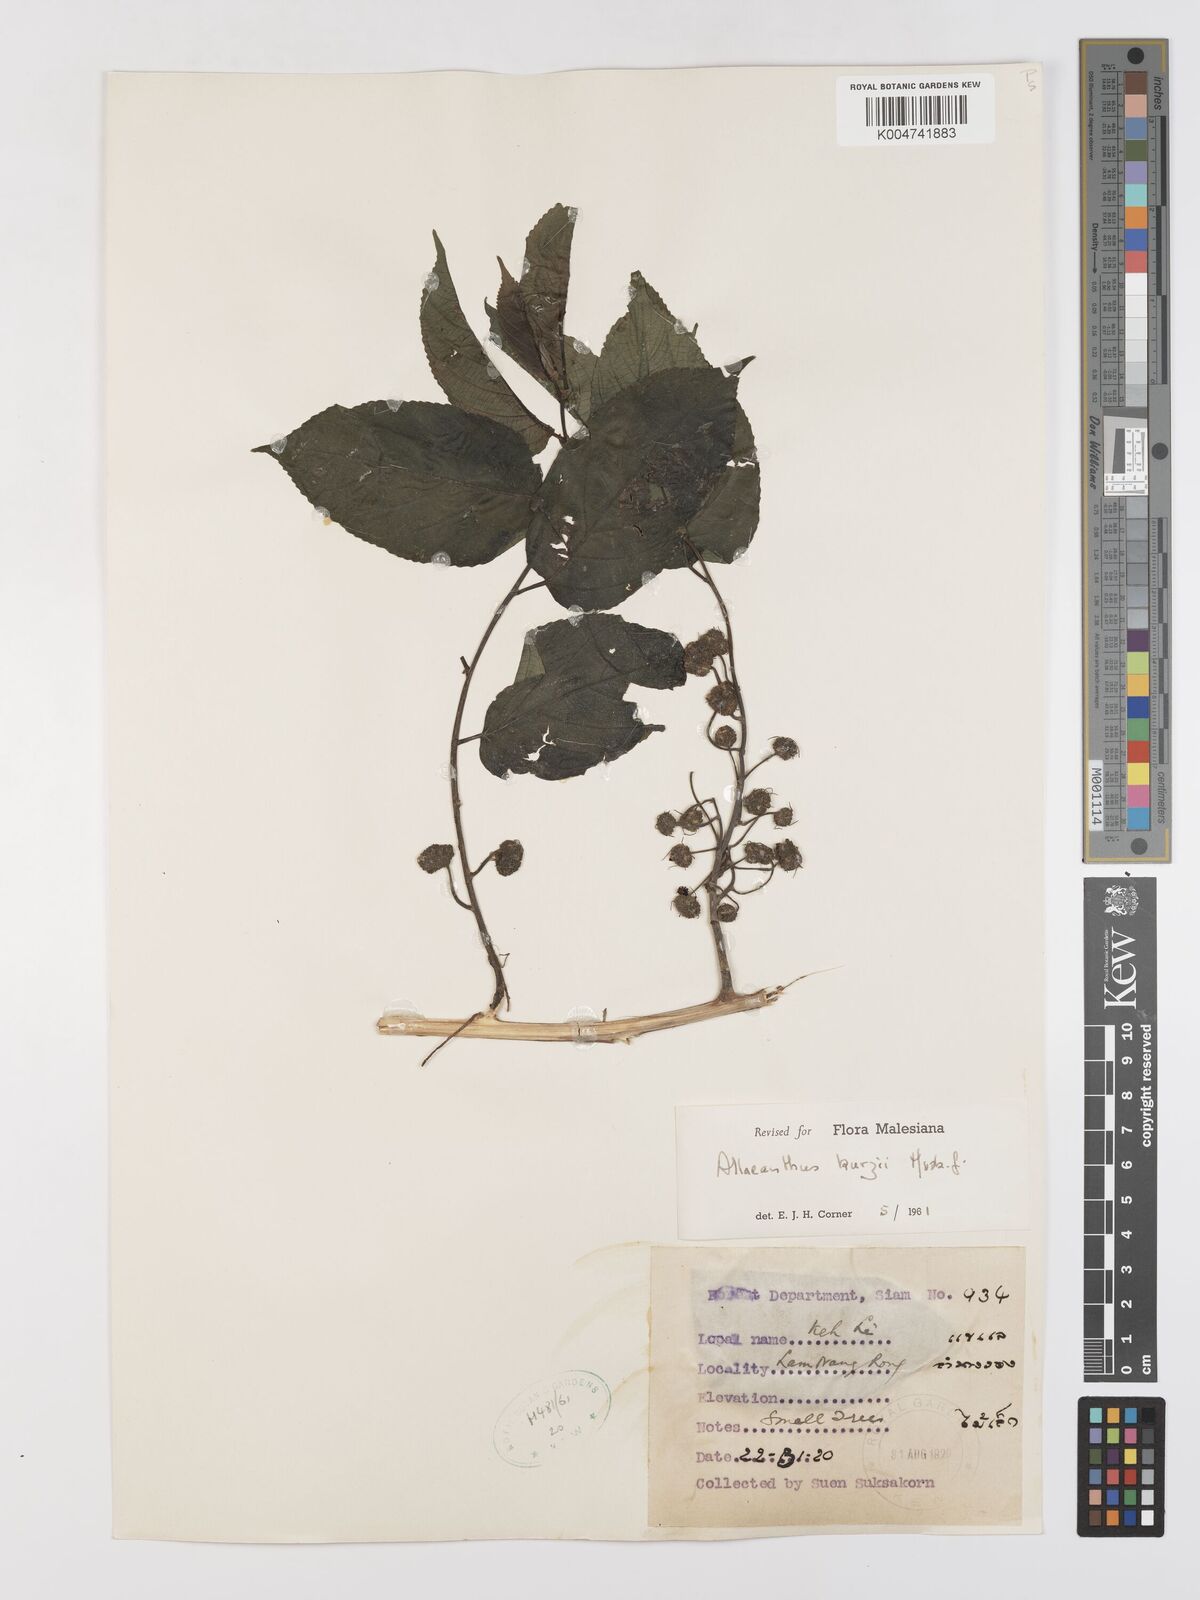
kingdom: Plantae
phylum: Tracheophyta
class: Magnoliopsida
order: Rosales
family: Moraceae
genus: Allaeanthus
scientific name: Allaeanthus kurzii
